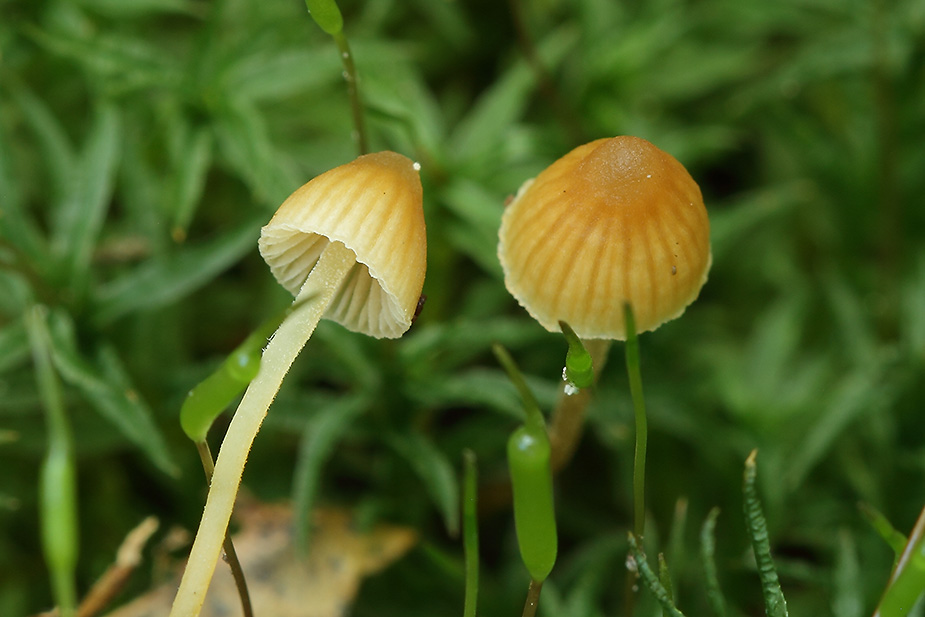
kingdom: Fungi
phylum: Basidiomycota
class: Agaricomycetes
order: Agaricales
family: Hymenogastraceae
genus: Galerina
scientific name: Galerina hypnorum
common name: mos-hjelmhat
